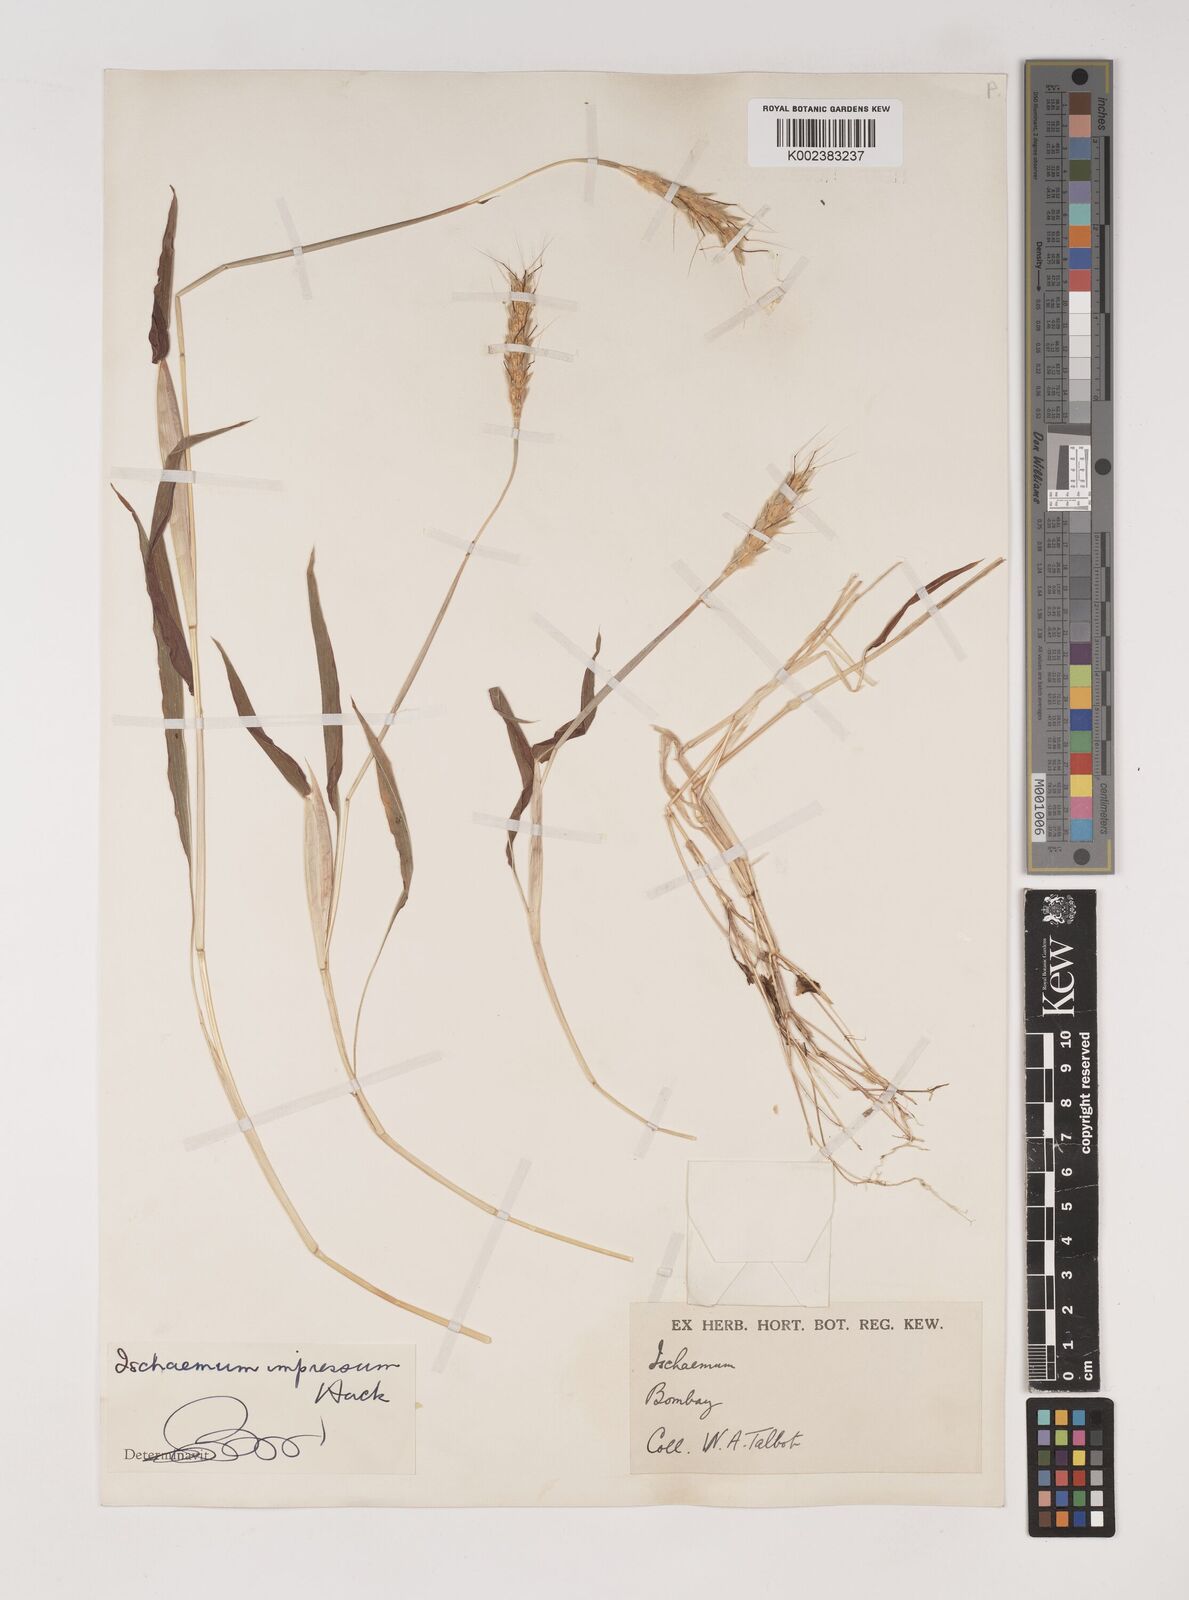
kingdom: Plantae
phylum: Tracheophyta
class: Liliopsida
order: Poales
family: Poaceae
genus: Ischaemum
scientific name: Ischaemum impressum
